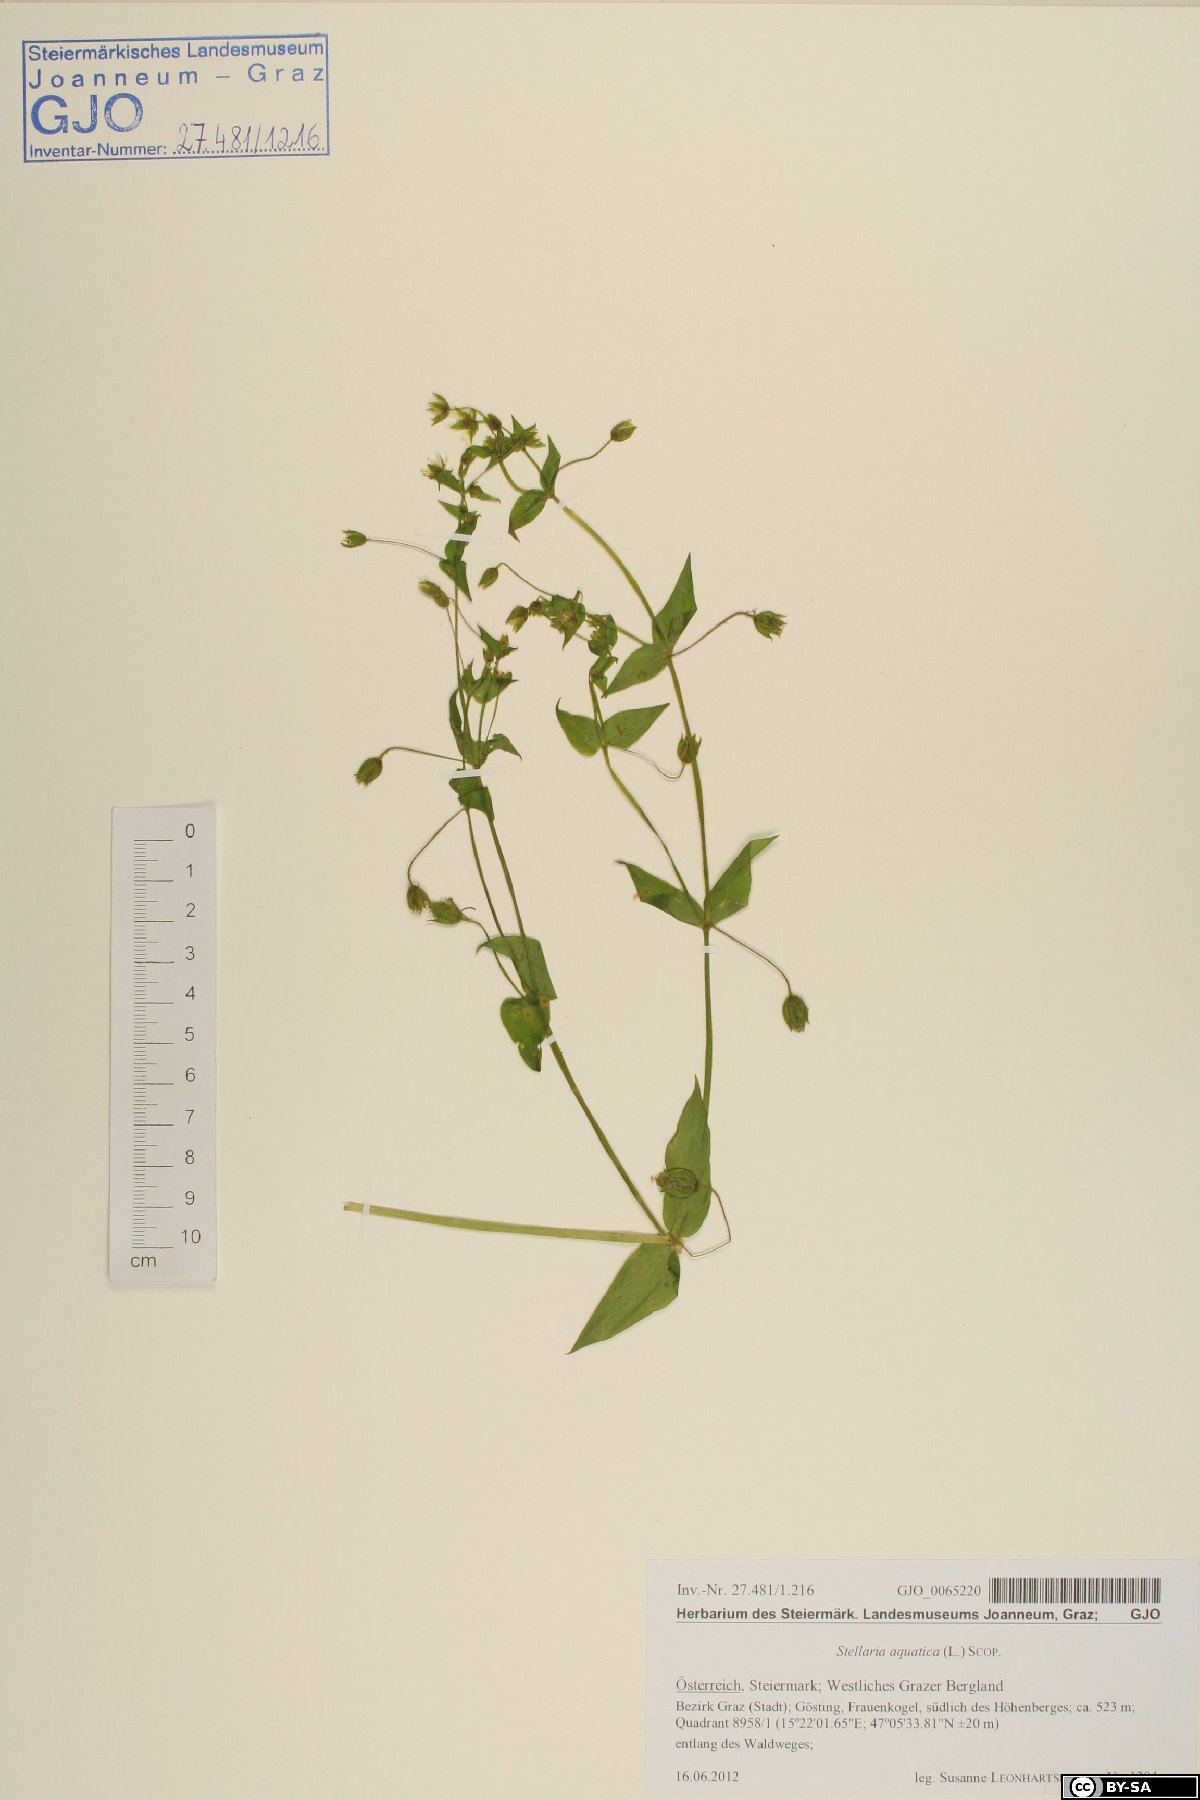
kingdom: Plantae
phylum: Tracheophyta
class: Magnoliopsida
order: Caryophyllales
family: Caryophyllaceae
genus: Stellaria
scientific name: Stellaria aquatica
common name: Water chickweed
